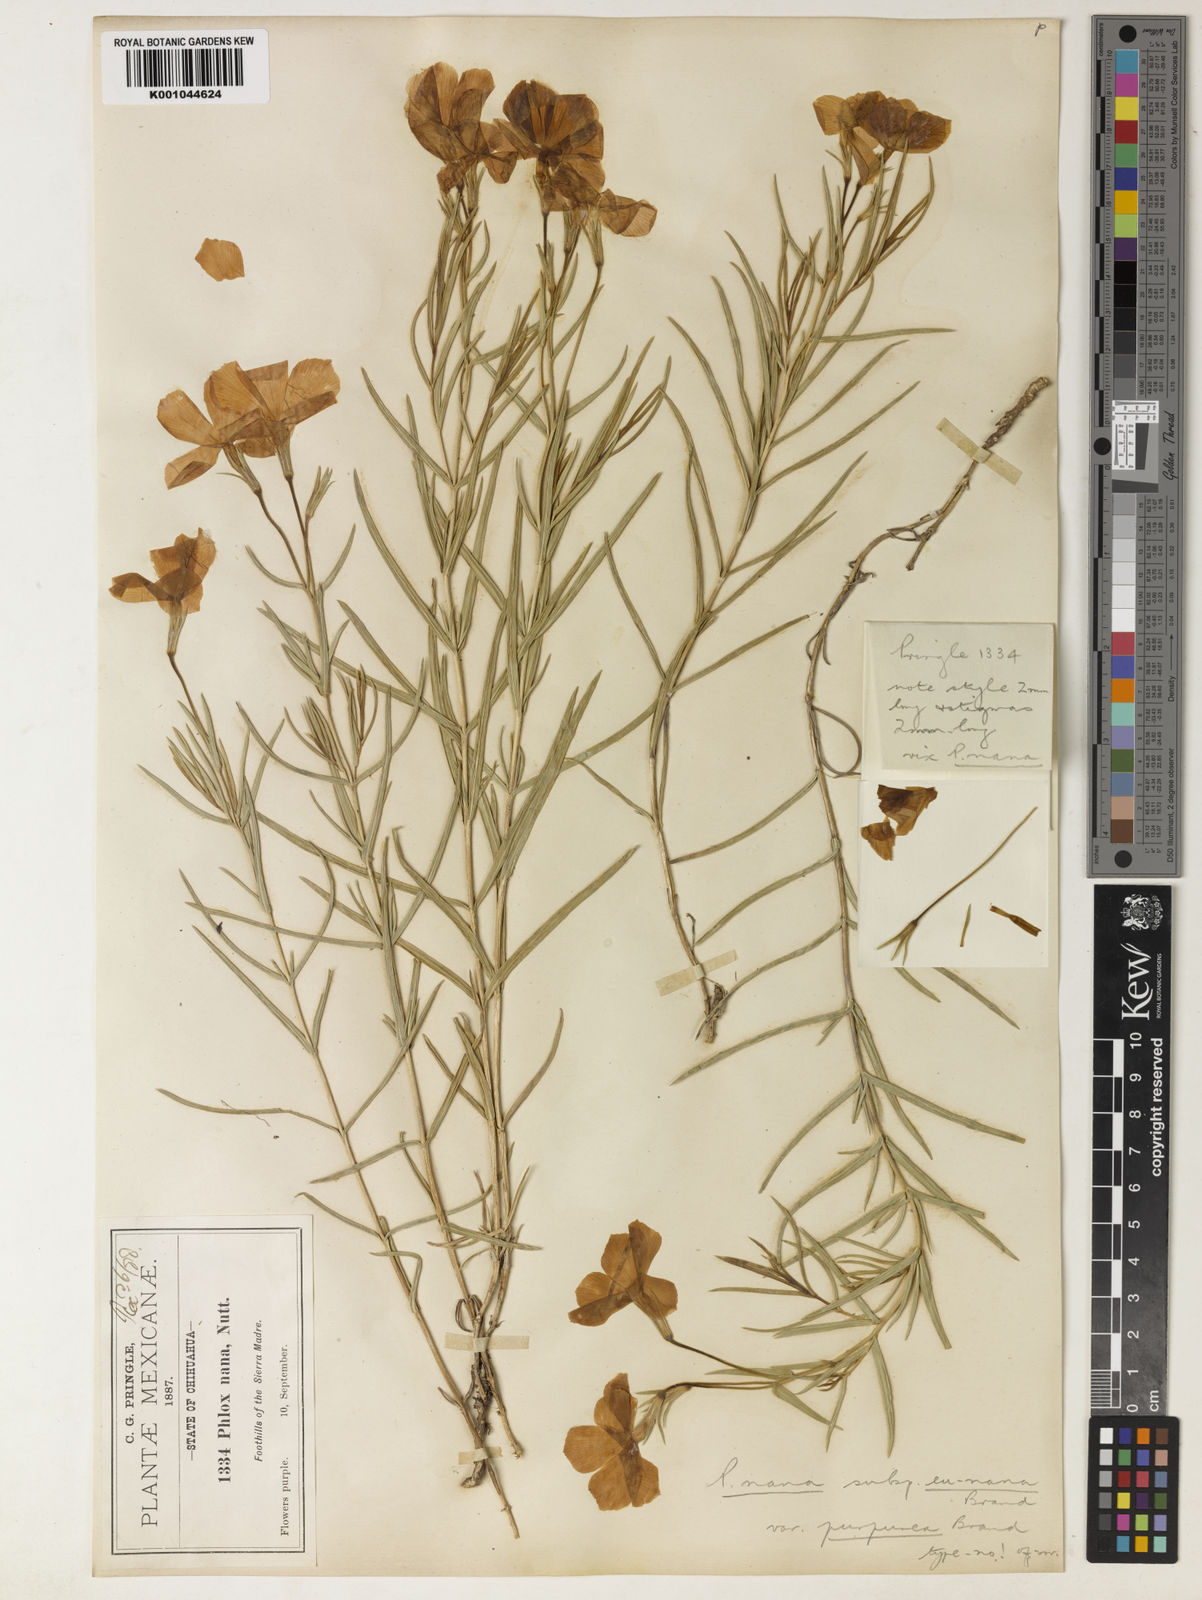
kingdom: Plantae
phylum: Tracheophyta
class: Magnoliopsida
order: Ericales
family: Polemoniaceae
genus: Phlox
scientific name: Phlox nana
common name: Santa fe phlox
